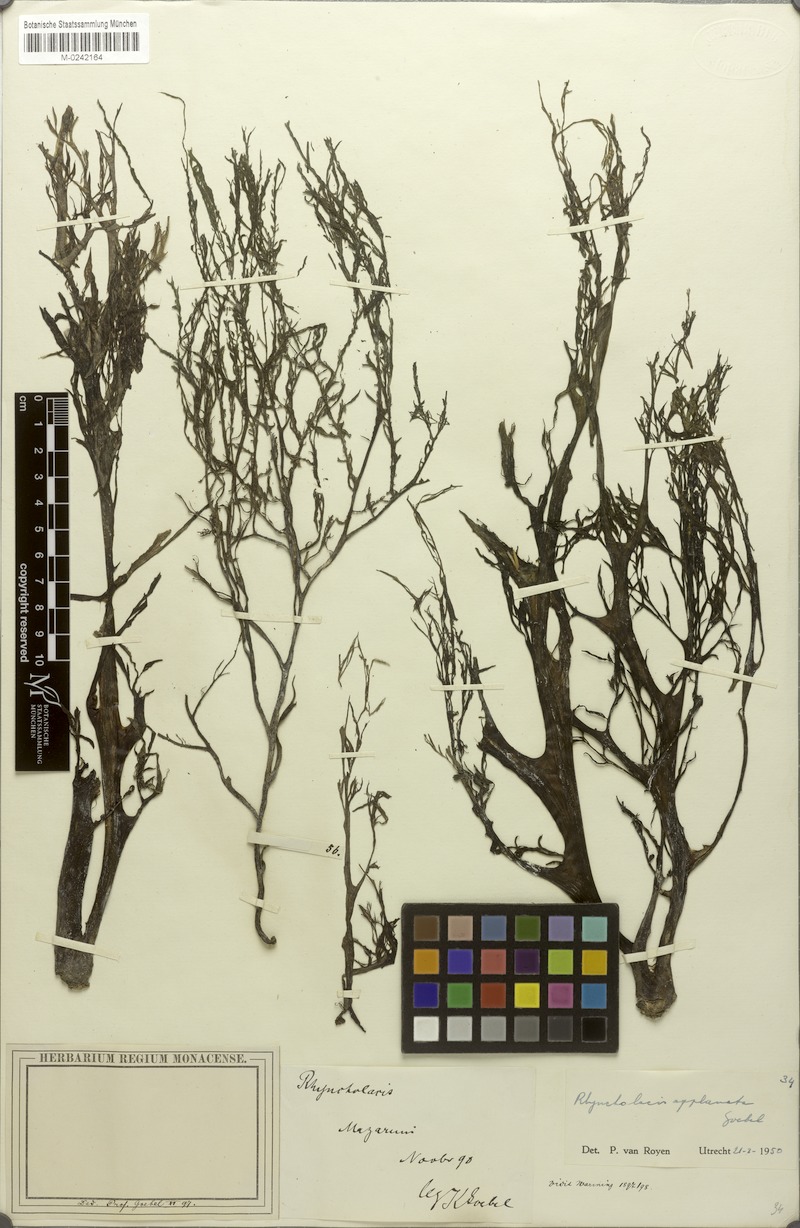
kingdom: Plantae
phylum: Tracheophyta
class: Magnoliopsida
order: Malpighiales
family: Podostemaceae
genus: Rhyncholacis
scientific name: Rhyncholacis applanata
